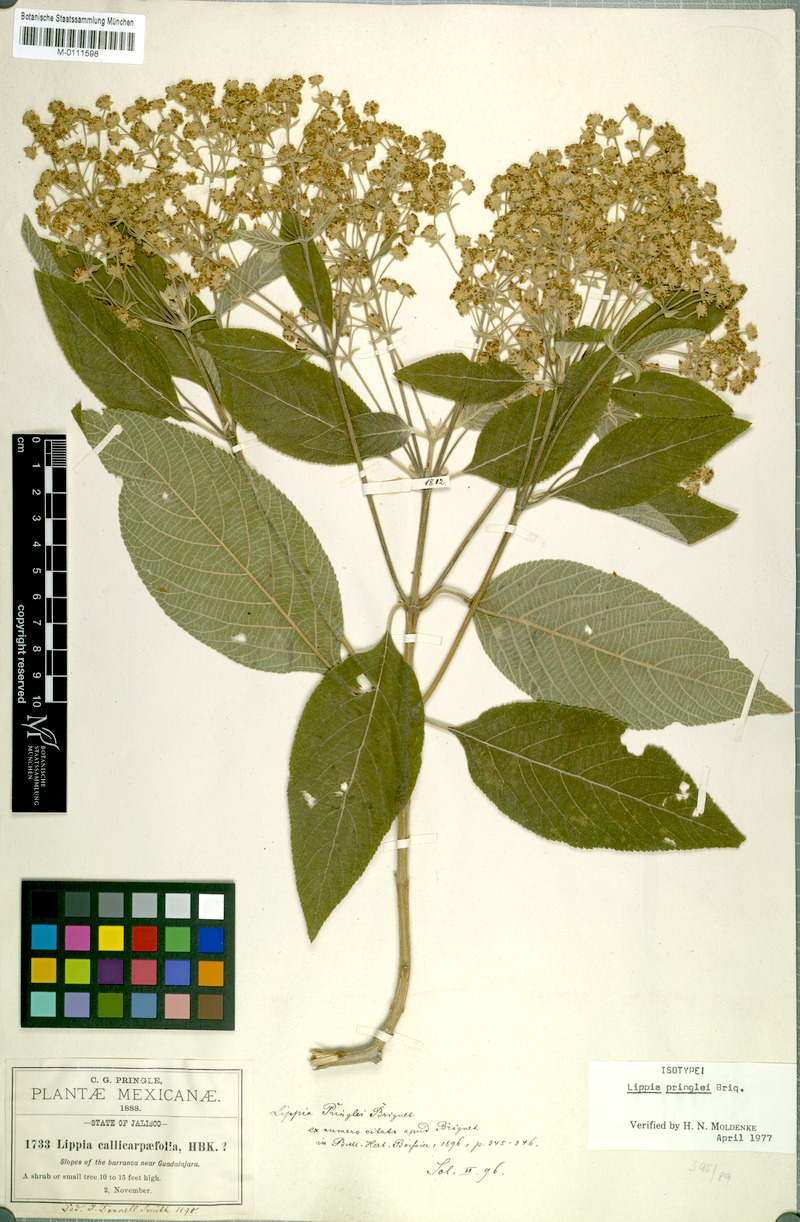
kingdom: Plantae
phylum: Tracheophyta
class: Magnoliopsida
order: Lamiales
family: Verbenaceae
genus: Lippia
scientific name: Lippia umbellata
